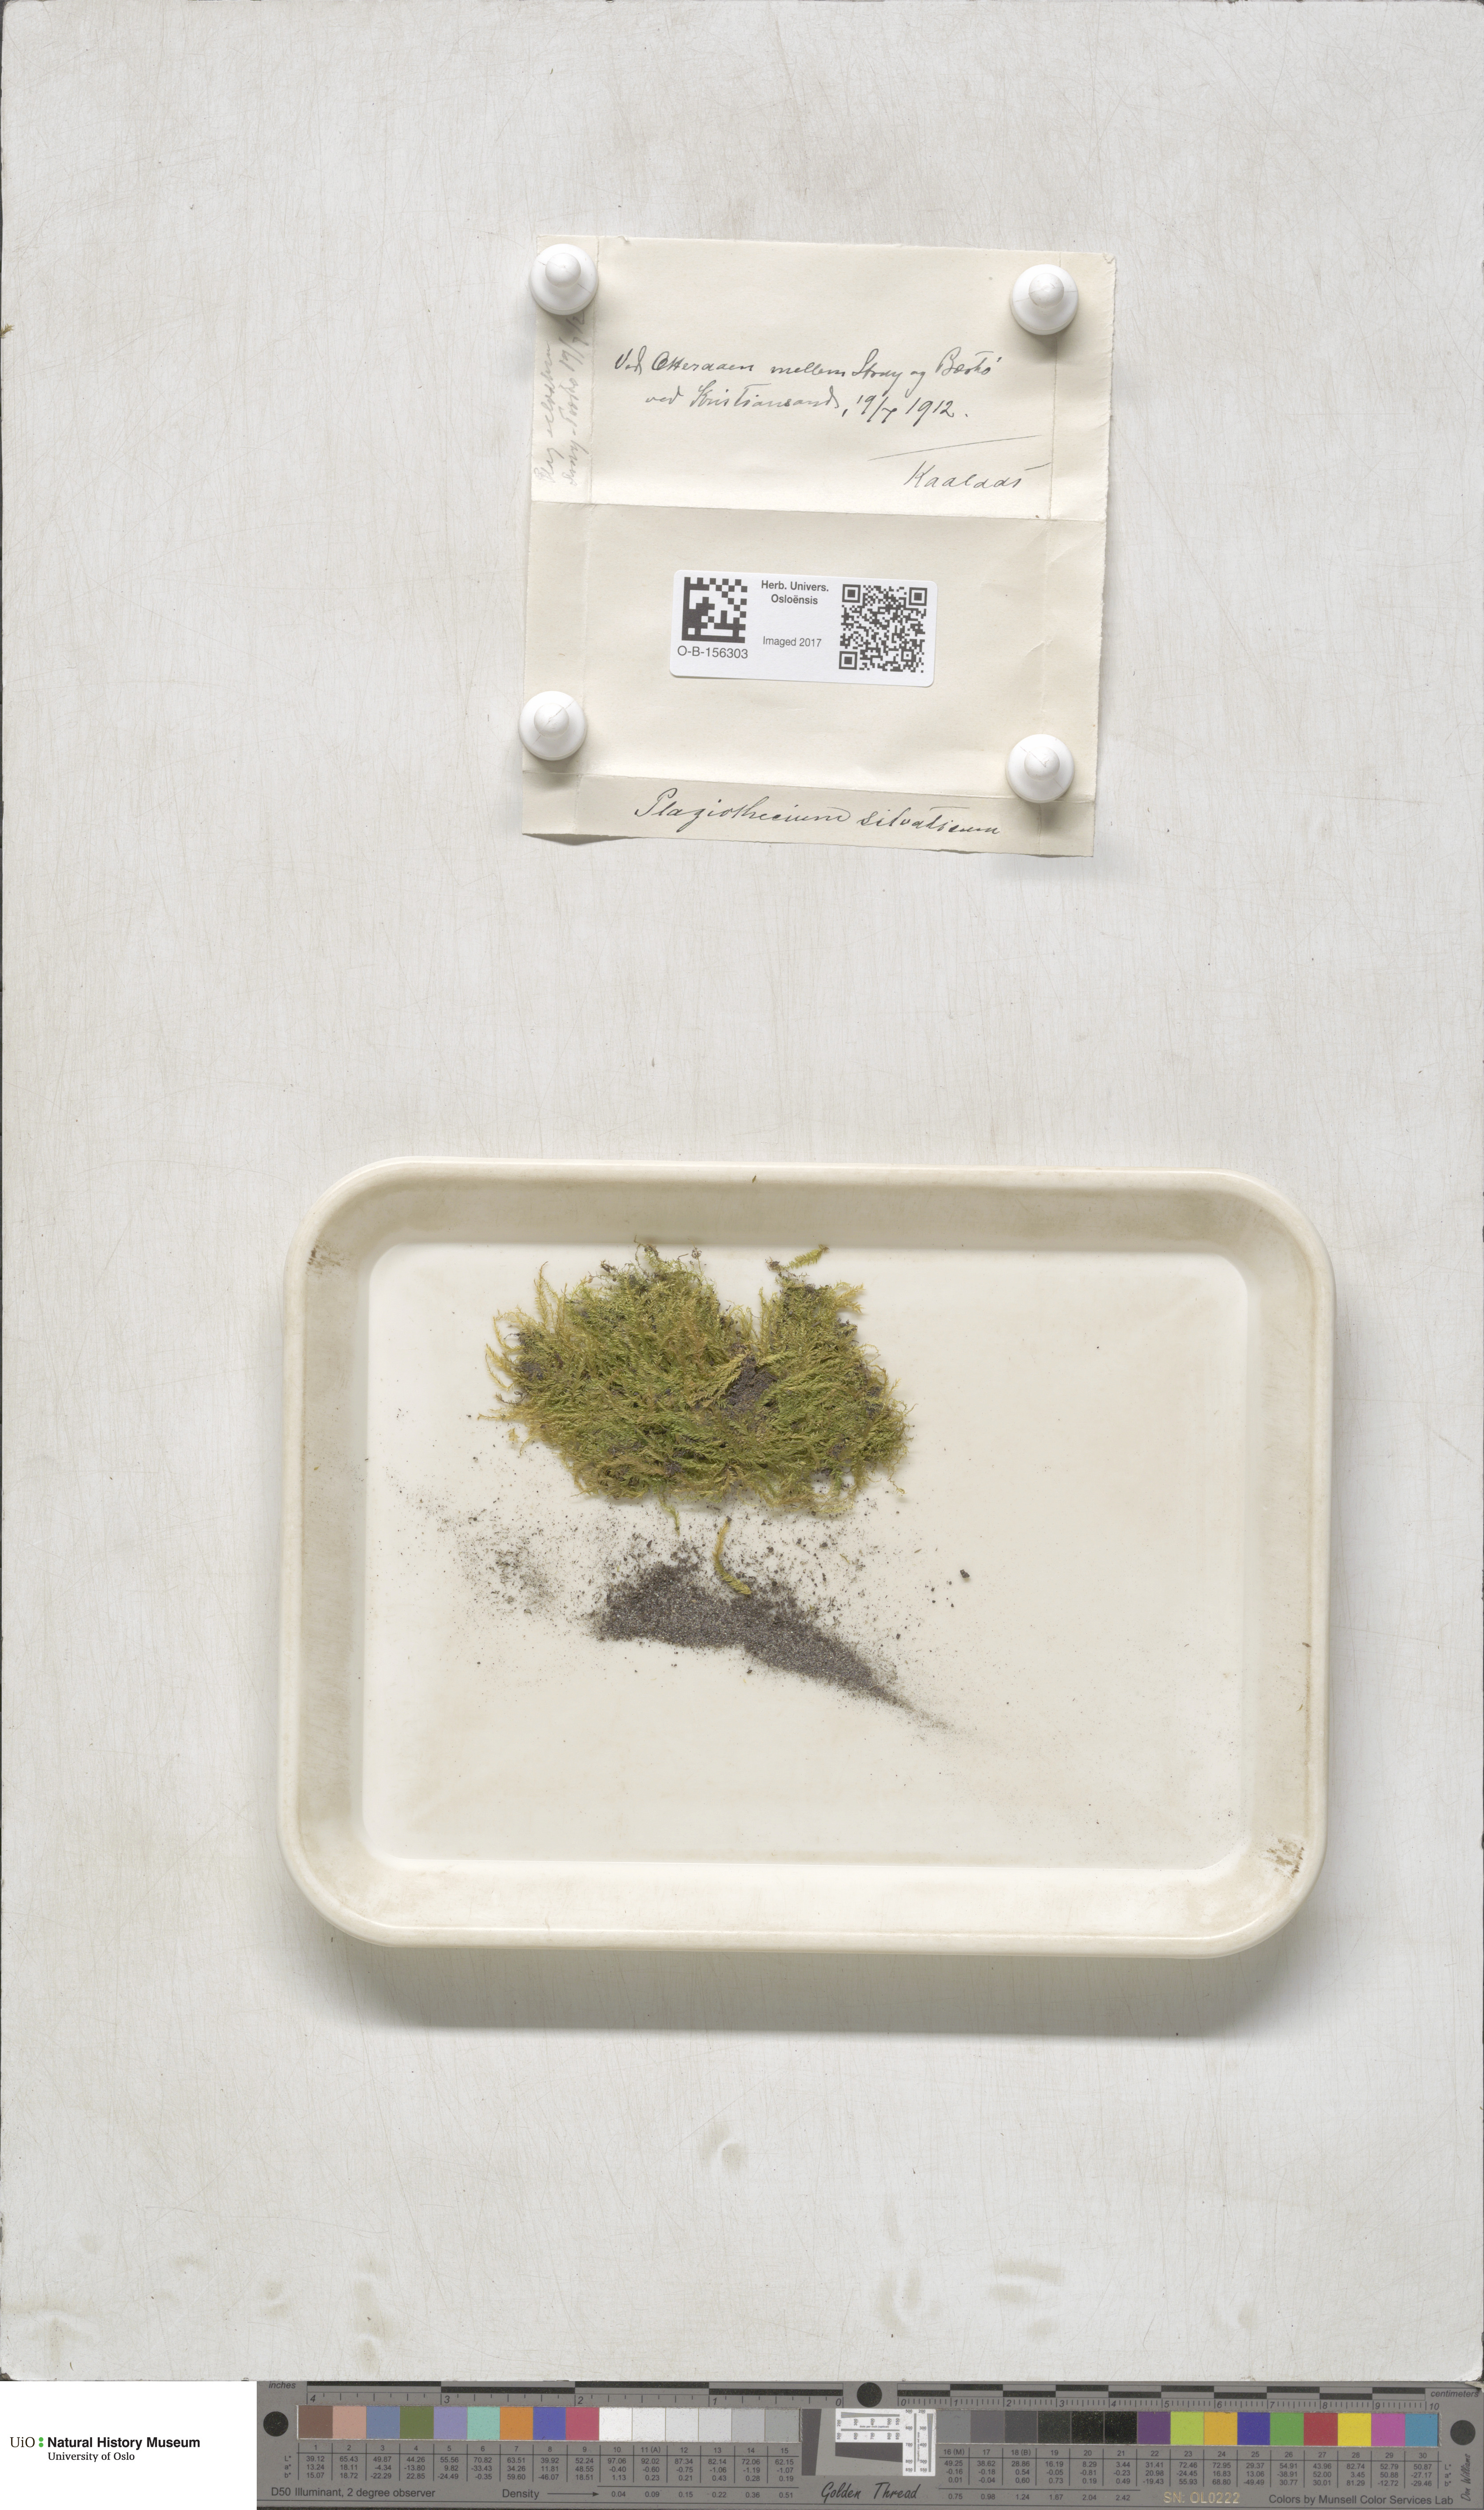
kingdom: Plantae
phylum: Bryophyta
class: Bryopsida
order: Hypnales
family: Plagiotheciaceae
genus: Plagiothecium
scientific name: Plagiothecium nemorale
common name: Woodsy silk-moss
